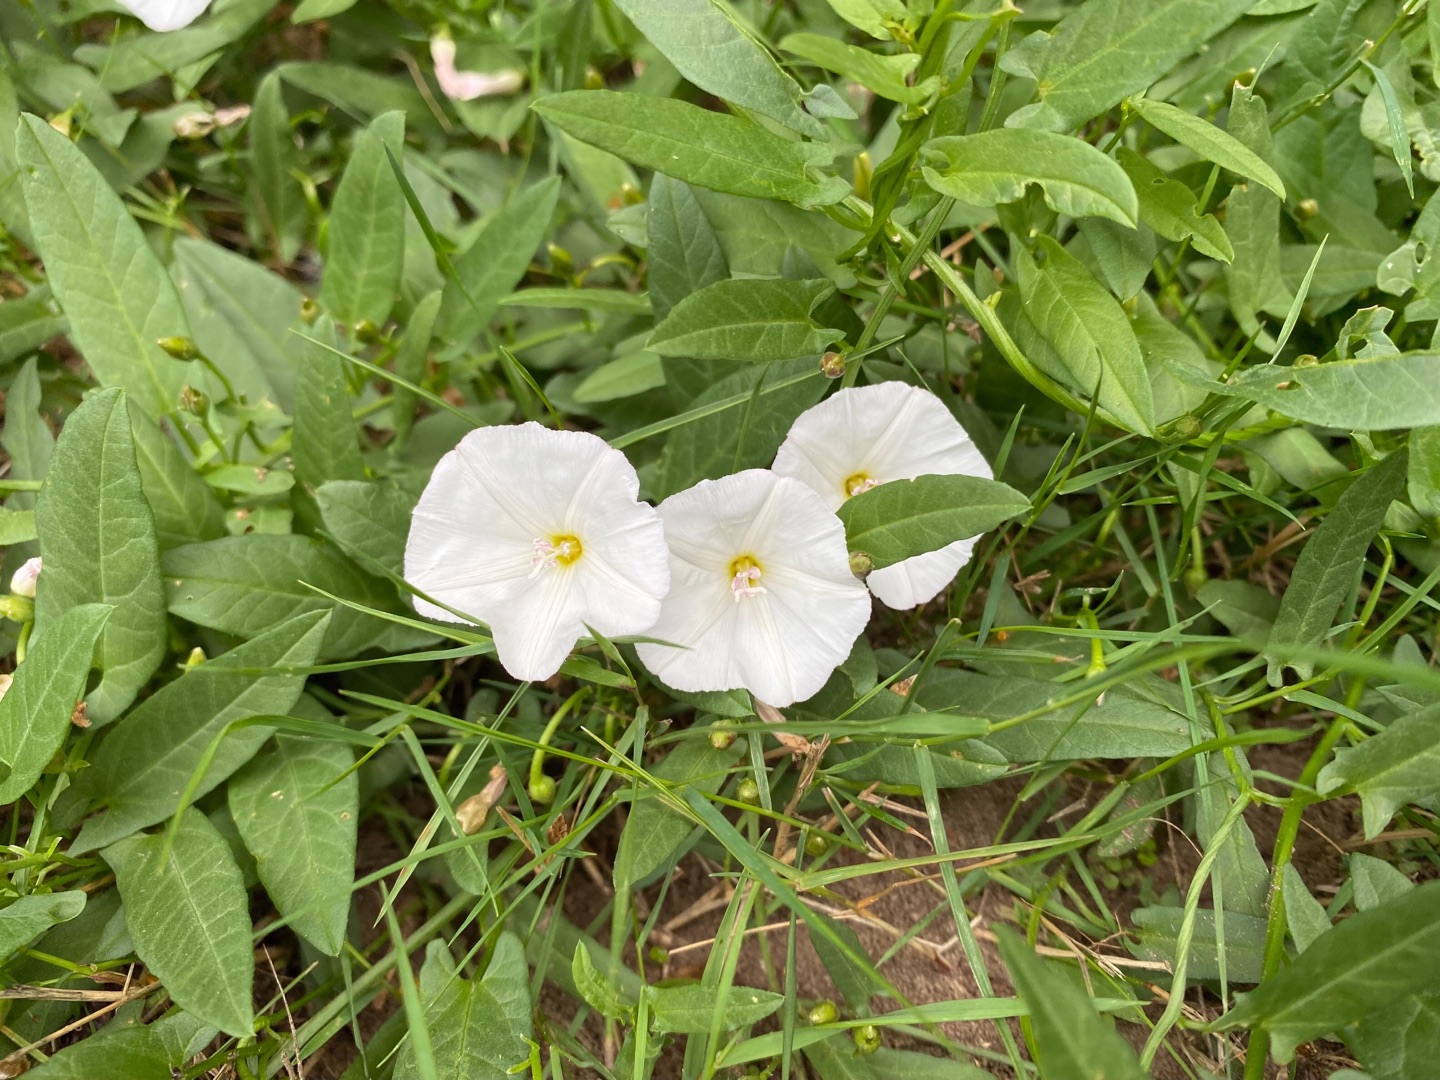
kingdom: Plantae
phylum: Tracheophyta
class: Magnoliopsida
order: Solanales
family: Convolvulaceae
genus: Convolvulus
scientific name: Convolvulus arvensis
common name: Ager-snerle
